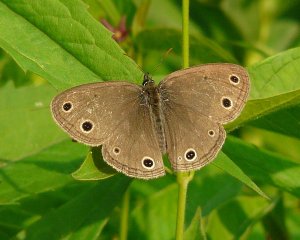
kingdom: Animalia
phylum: Arthropoda
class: Insecta
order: Lepidoptera
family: Nymphalidae
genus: Euptychia
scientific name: Euptychia cymela
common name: Little Wood Satyr
